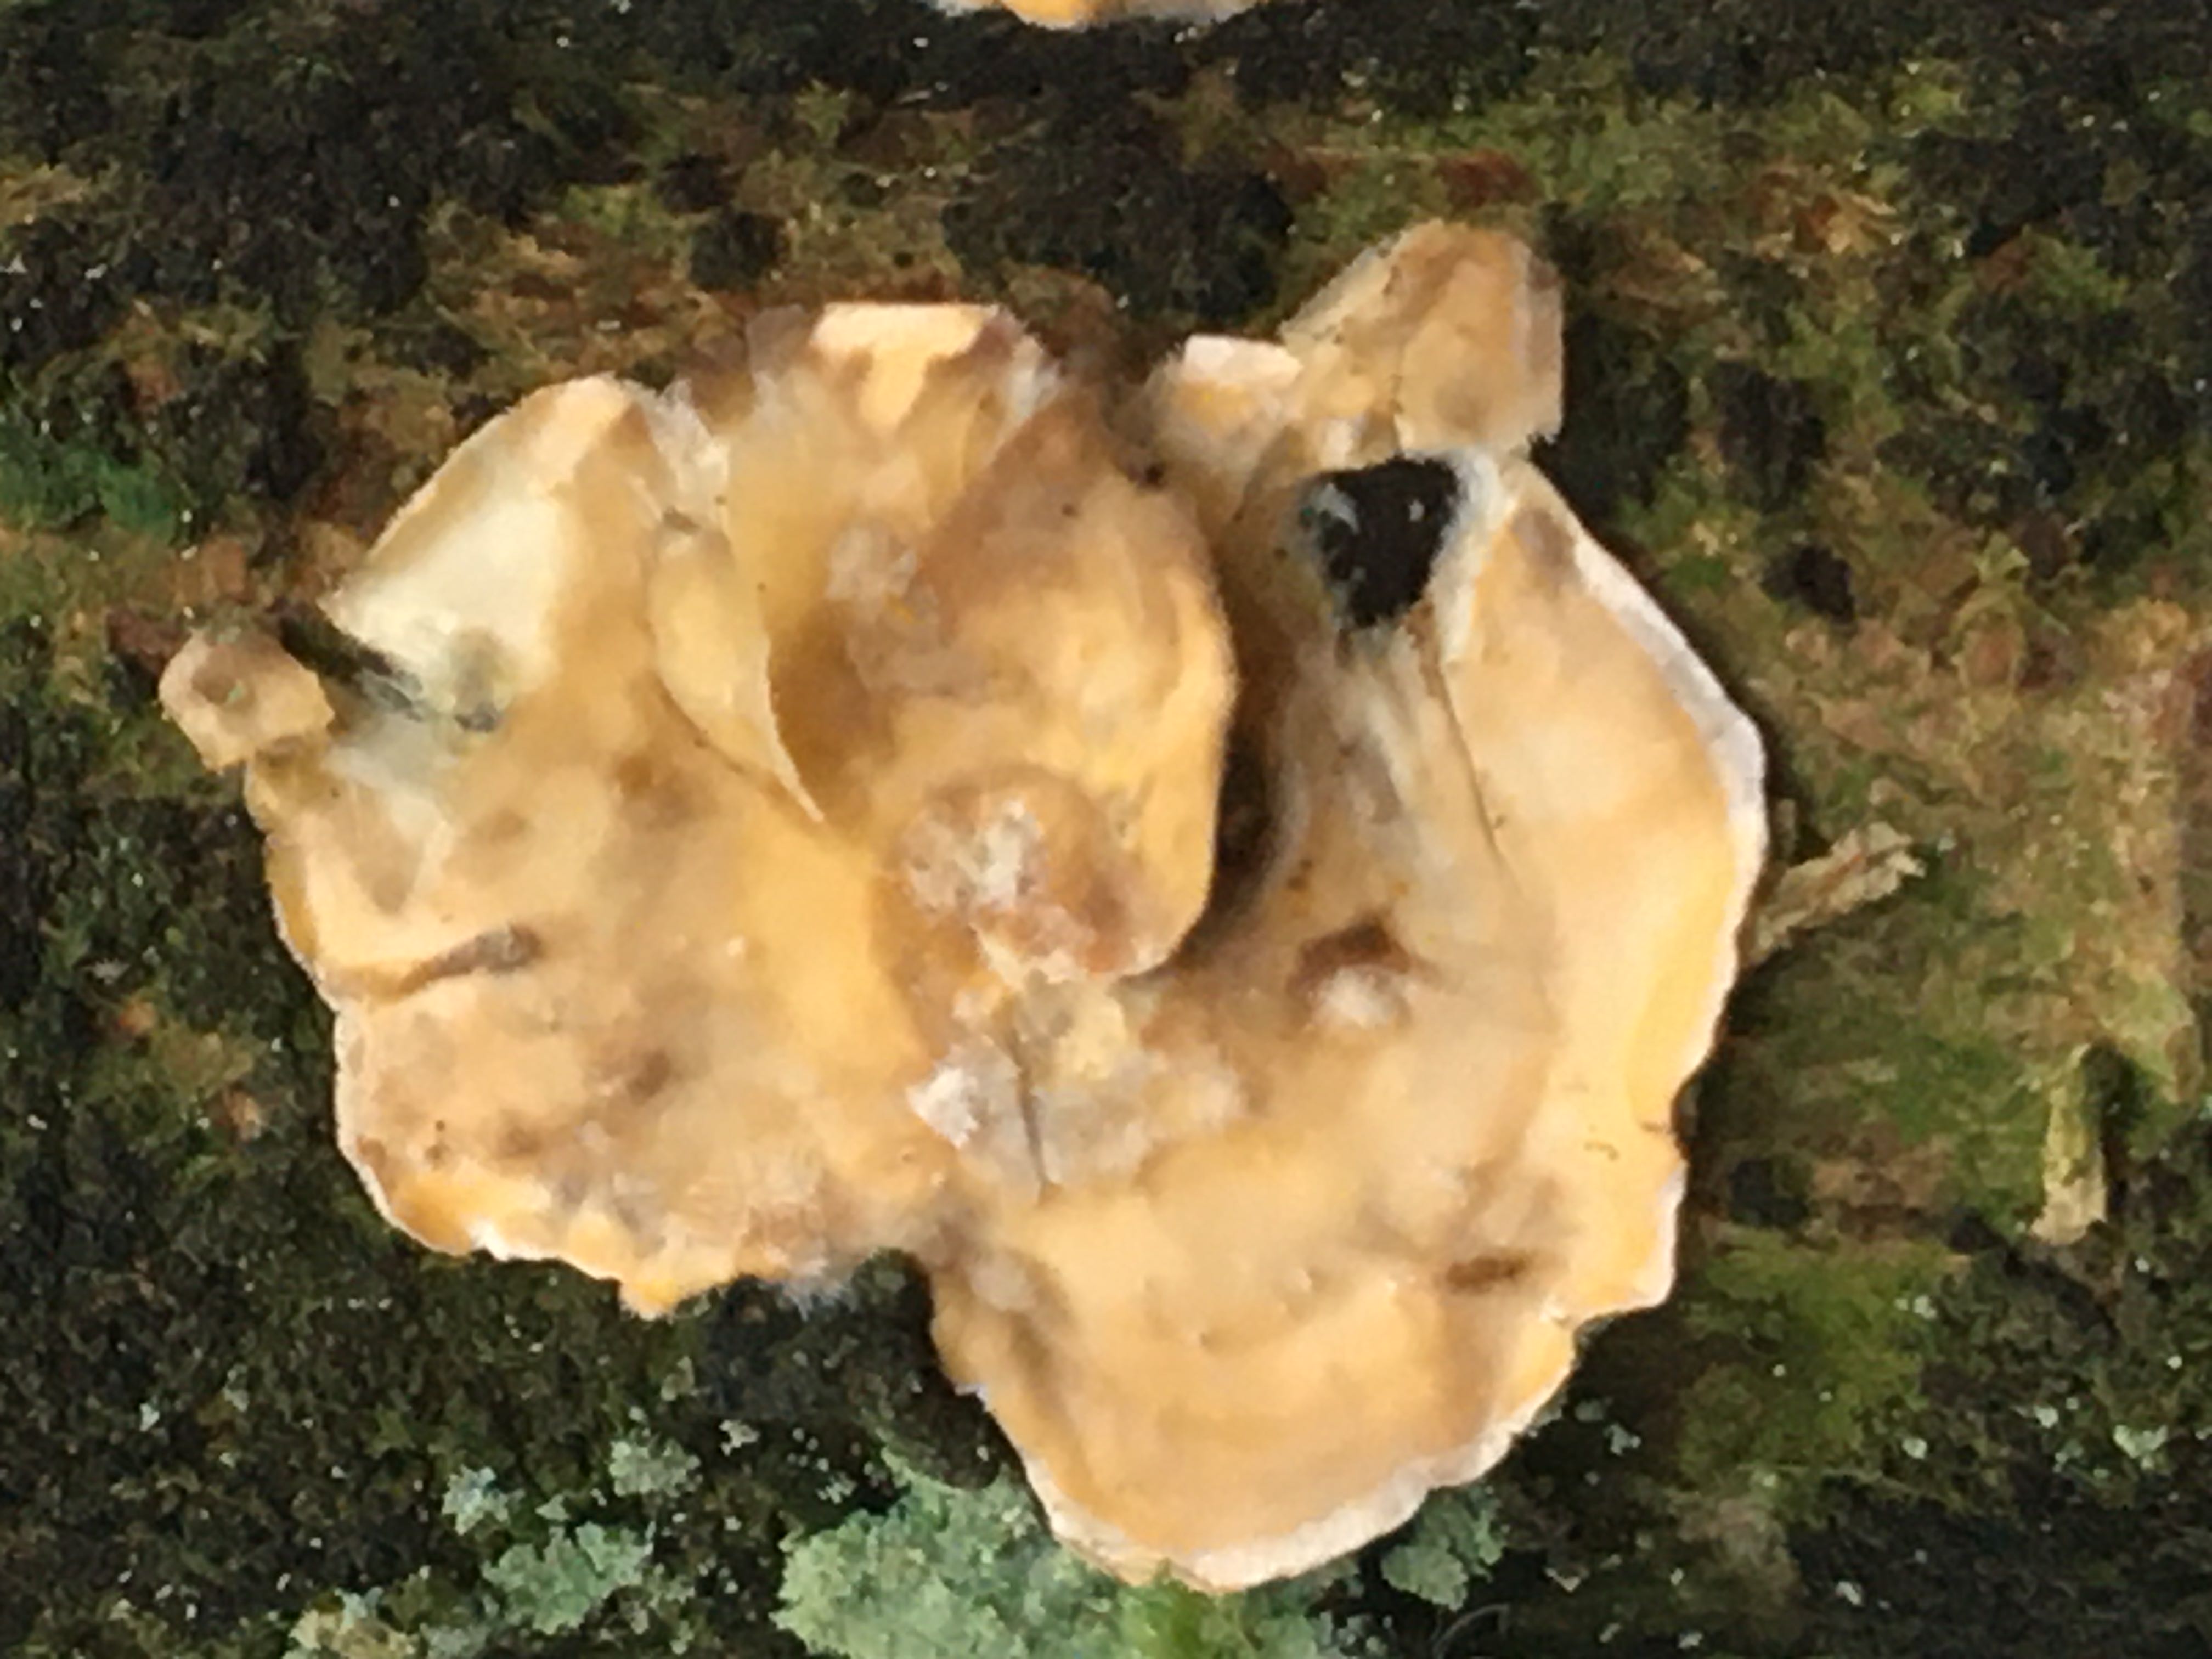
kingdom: Fungi
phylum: Basidiomycota
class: Agaricomycetes
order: Russulales
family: Stereaceae
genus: Stereum
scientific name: Stereum hirsutum
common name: håret lædersvamp
